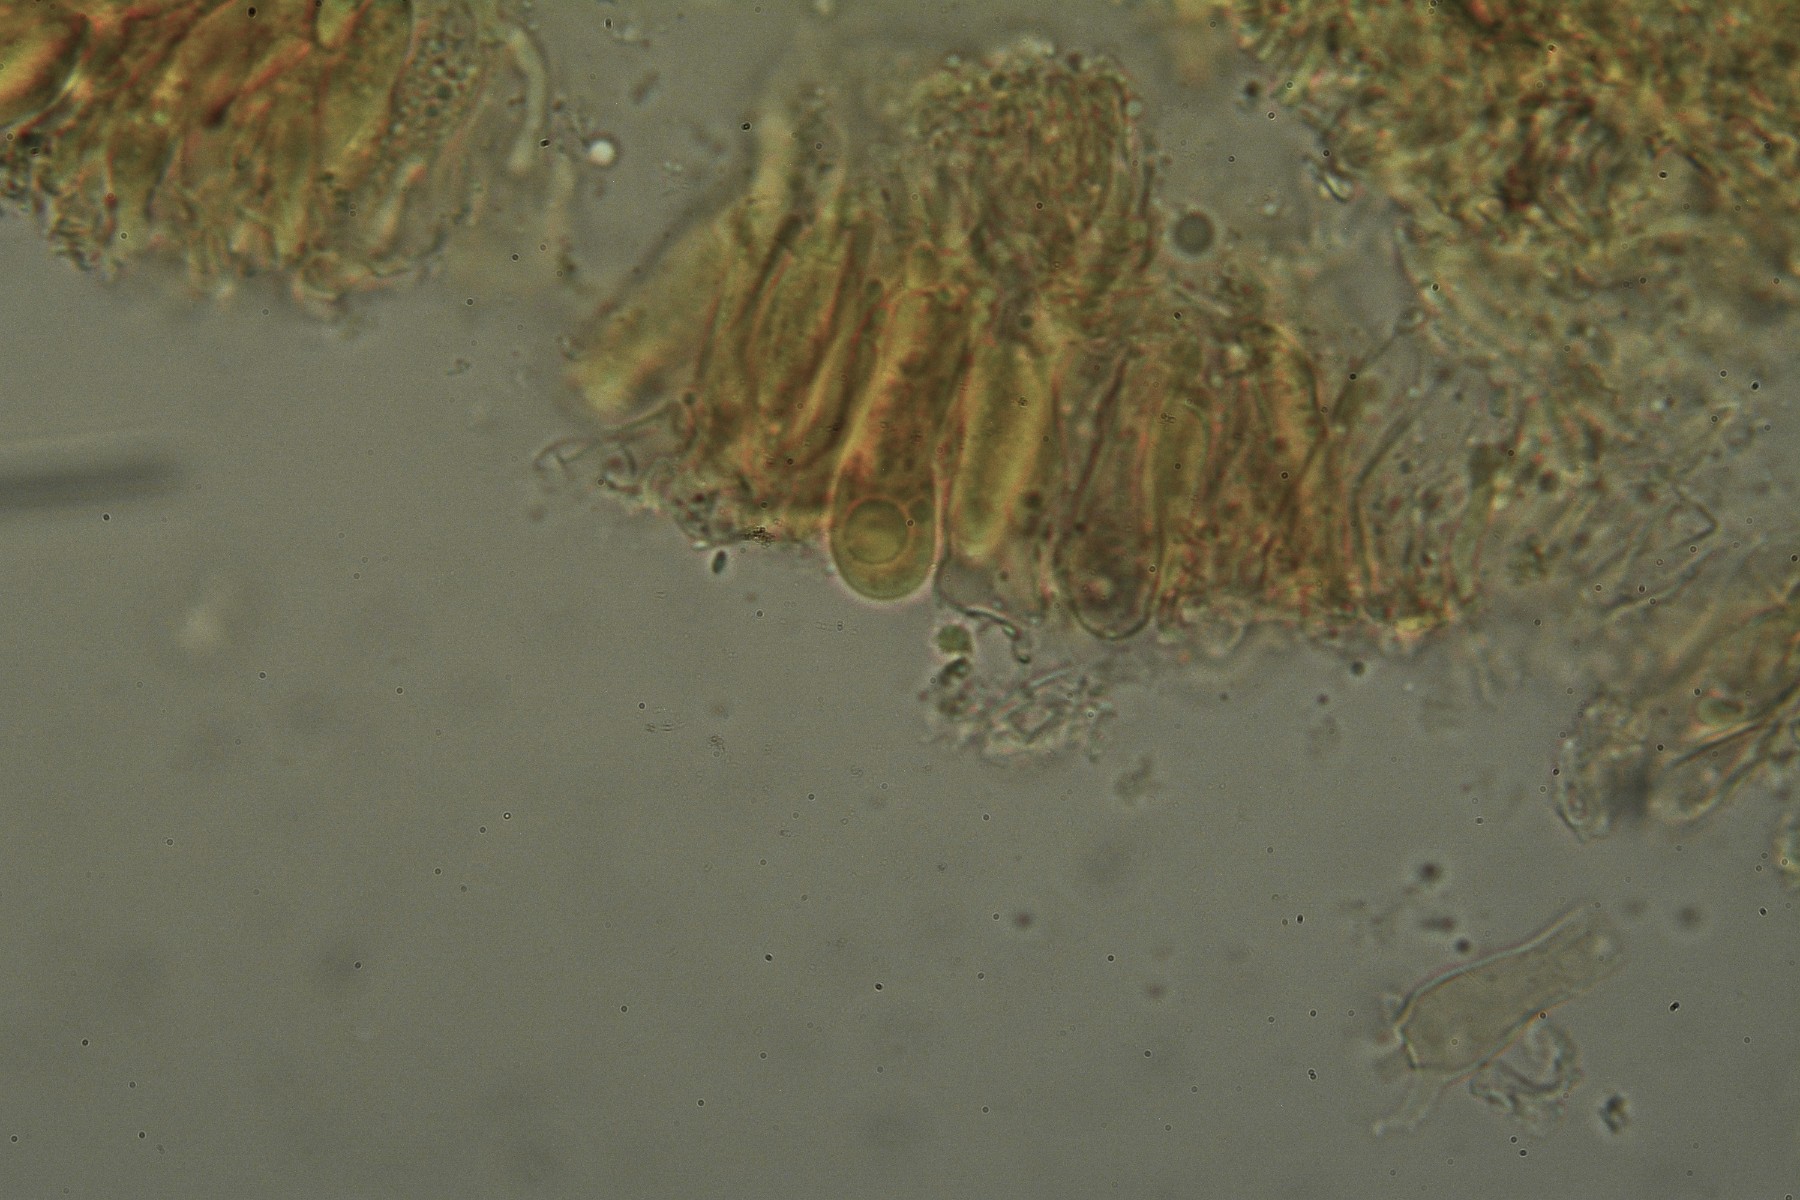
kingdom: Fungi
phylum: Basidiomycota
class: Agaricomycetes
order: Agaricales
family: Niaceae
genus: Lachnella
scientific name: Lachnella alboviolascens
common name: grå frynserede
